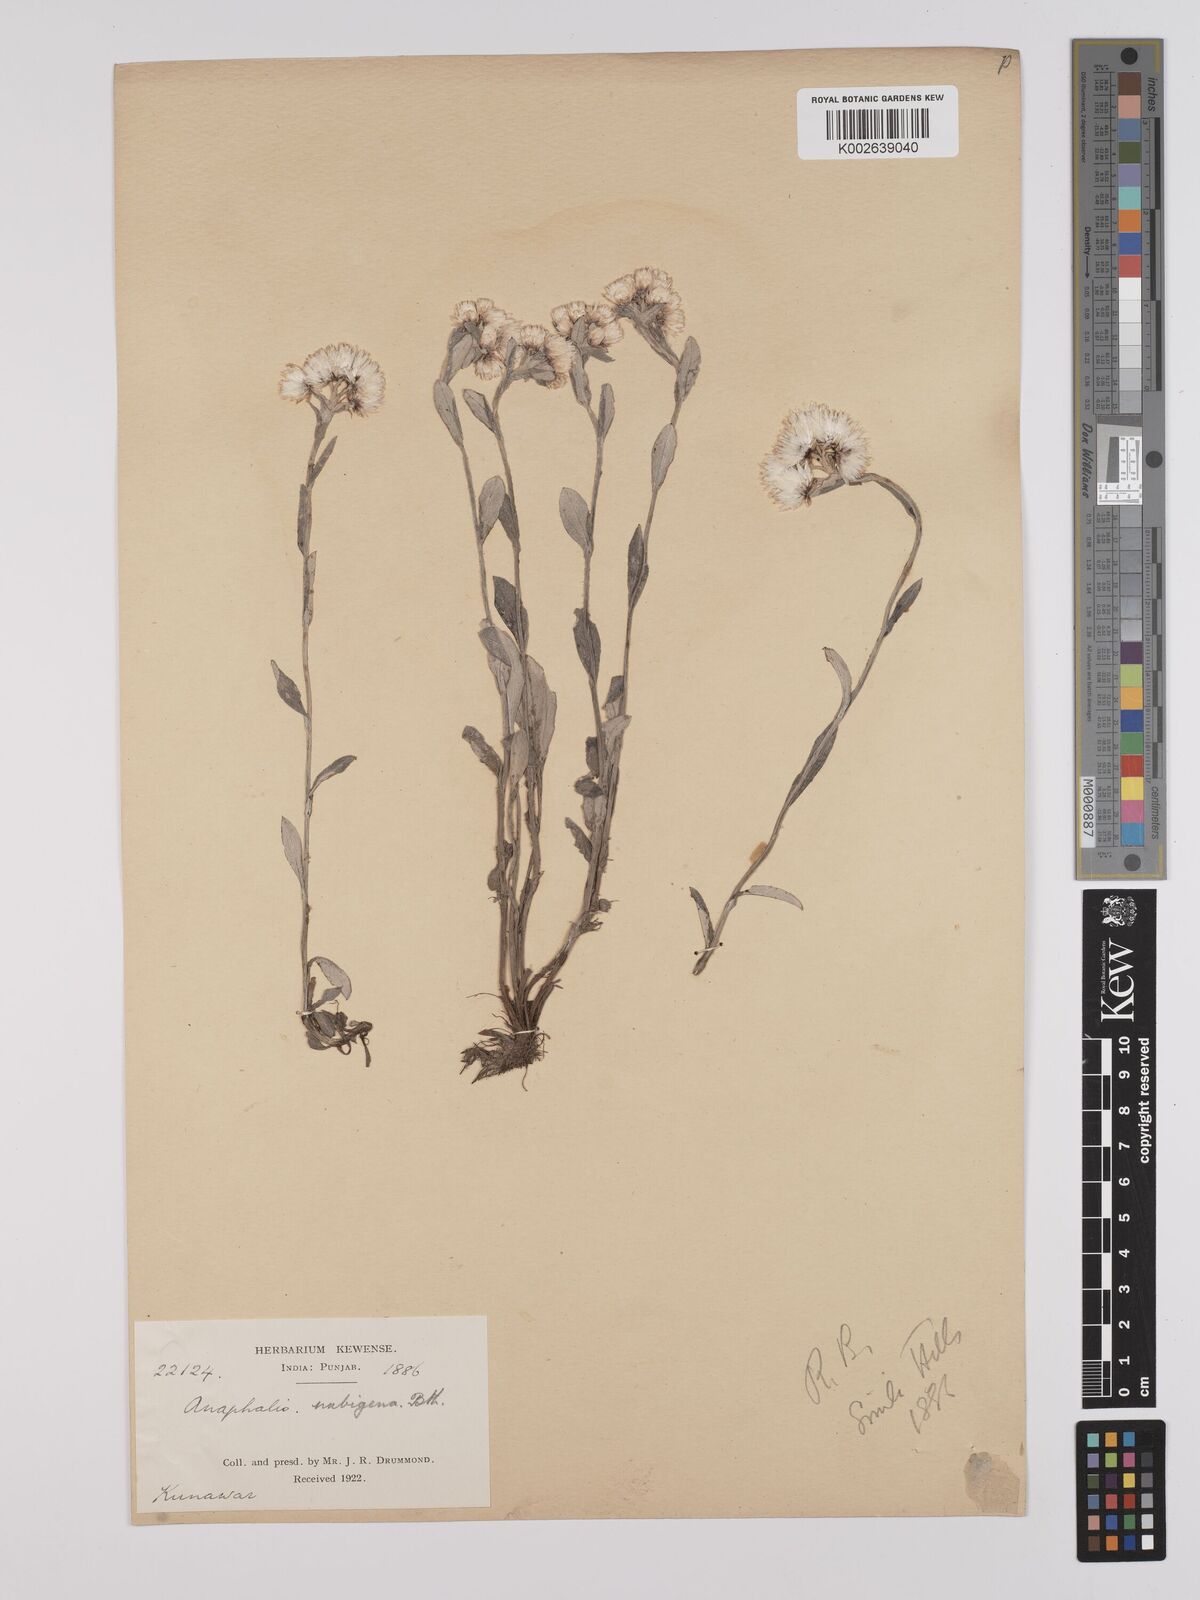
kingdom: Plantae
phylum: Tracheophyta
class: Magnoliopsida
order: Asterales
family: Asteraceae
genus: Anaphalioides
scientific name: Anaphalioides trinervis
